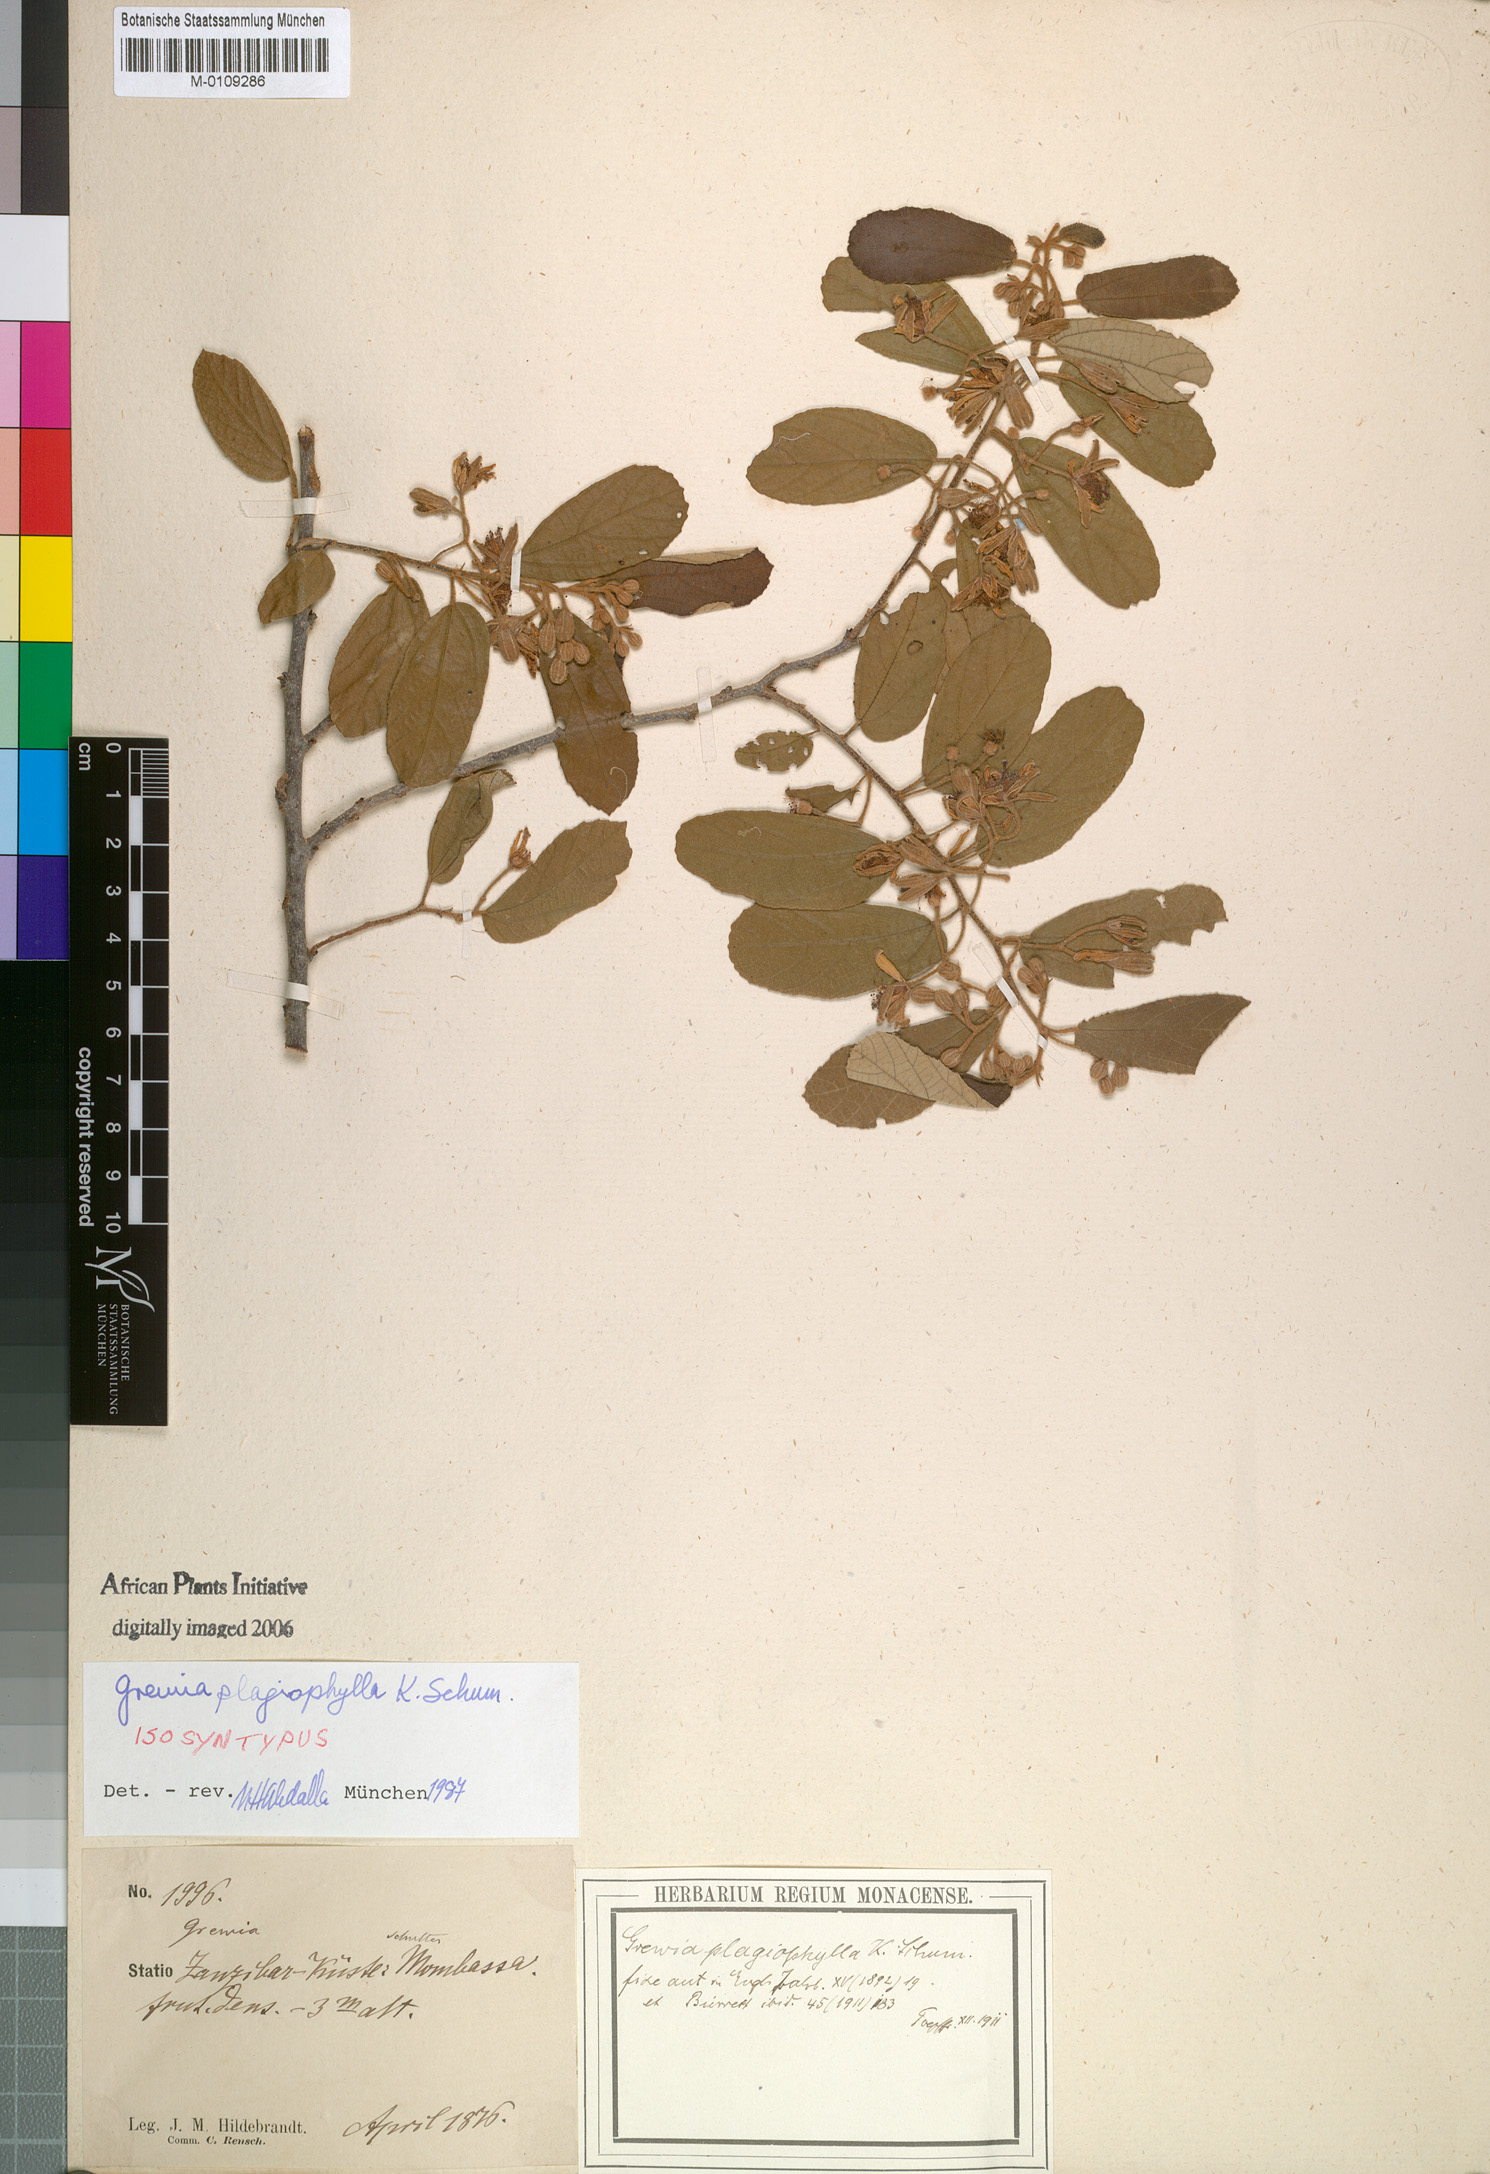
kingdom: Plantae
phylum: Tracheophyta
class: Magnoliopsida
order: Malvales
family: Malvaceae
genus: Grewia
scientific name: Grewia plagiophylla
